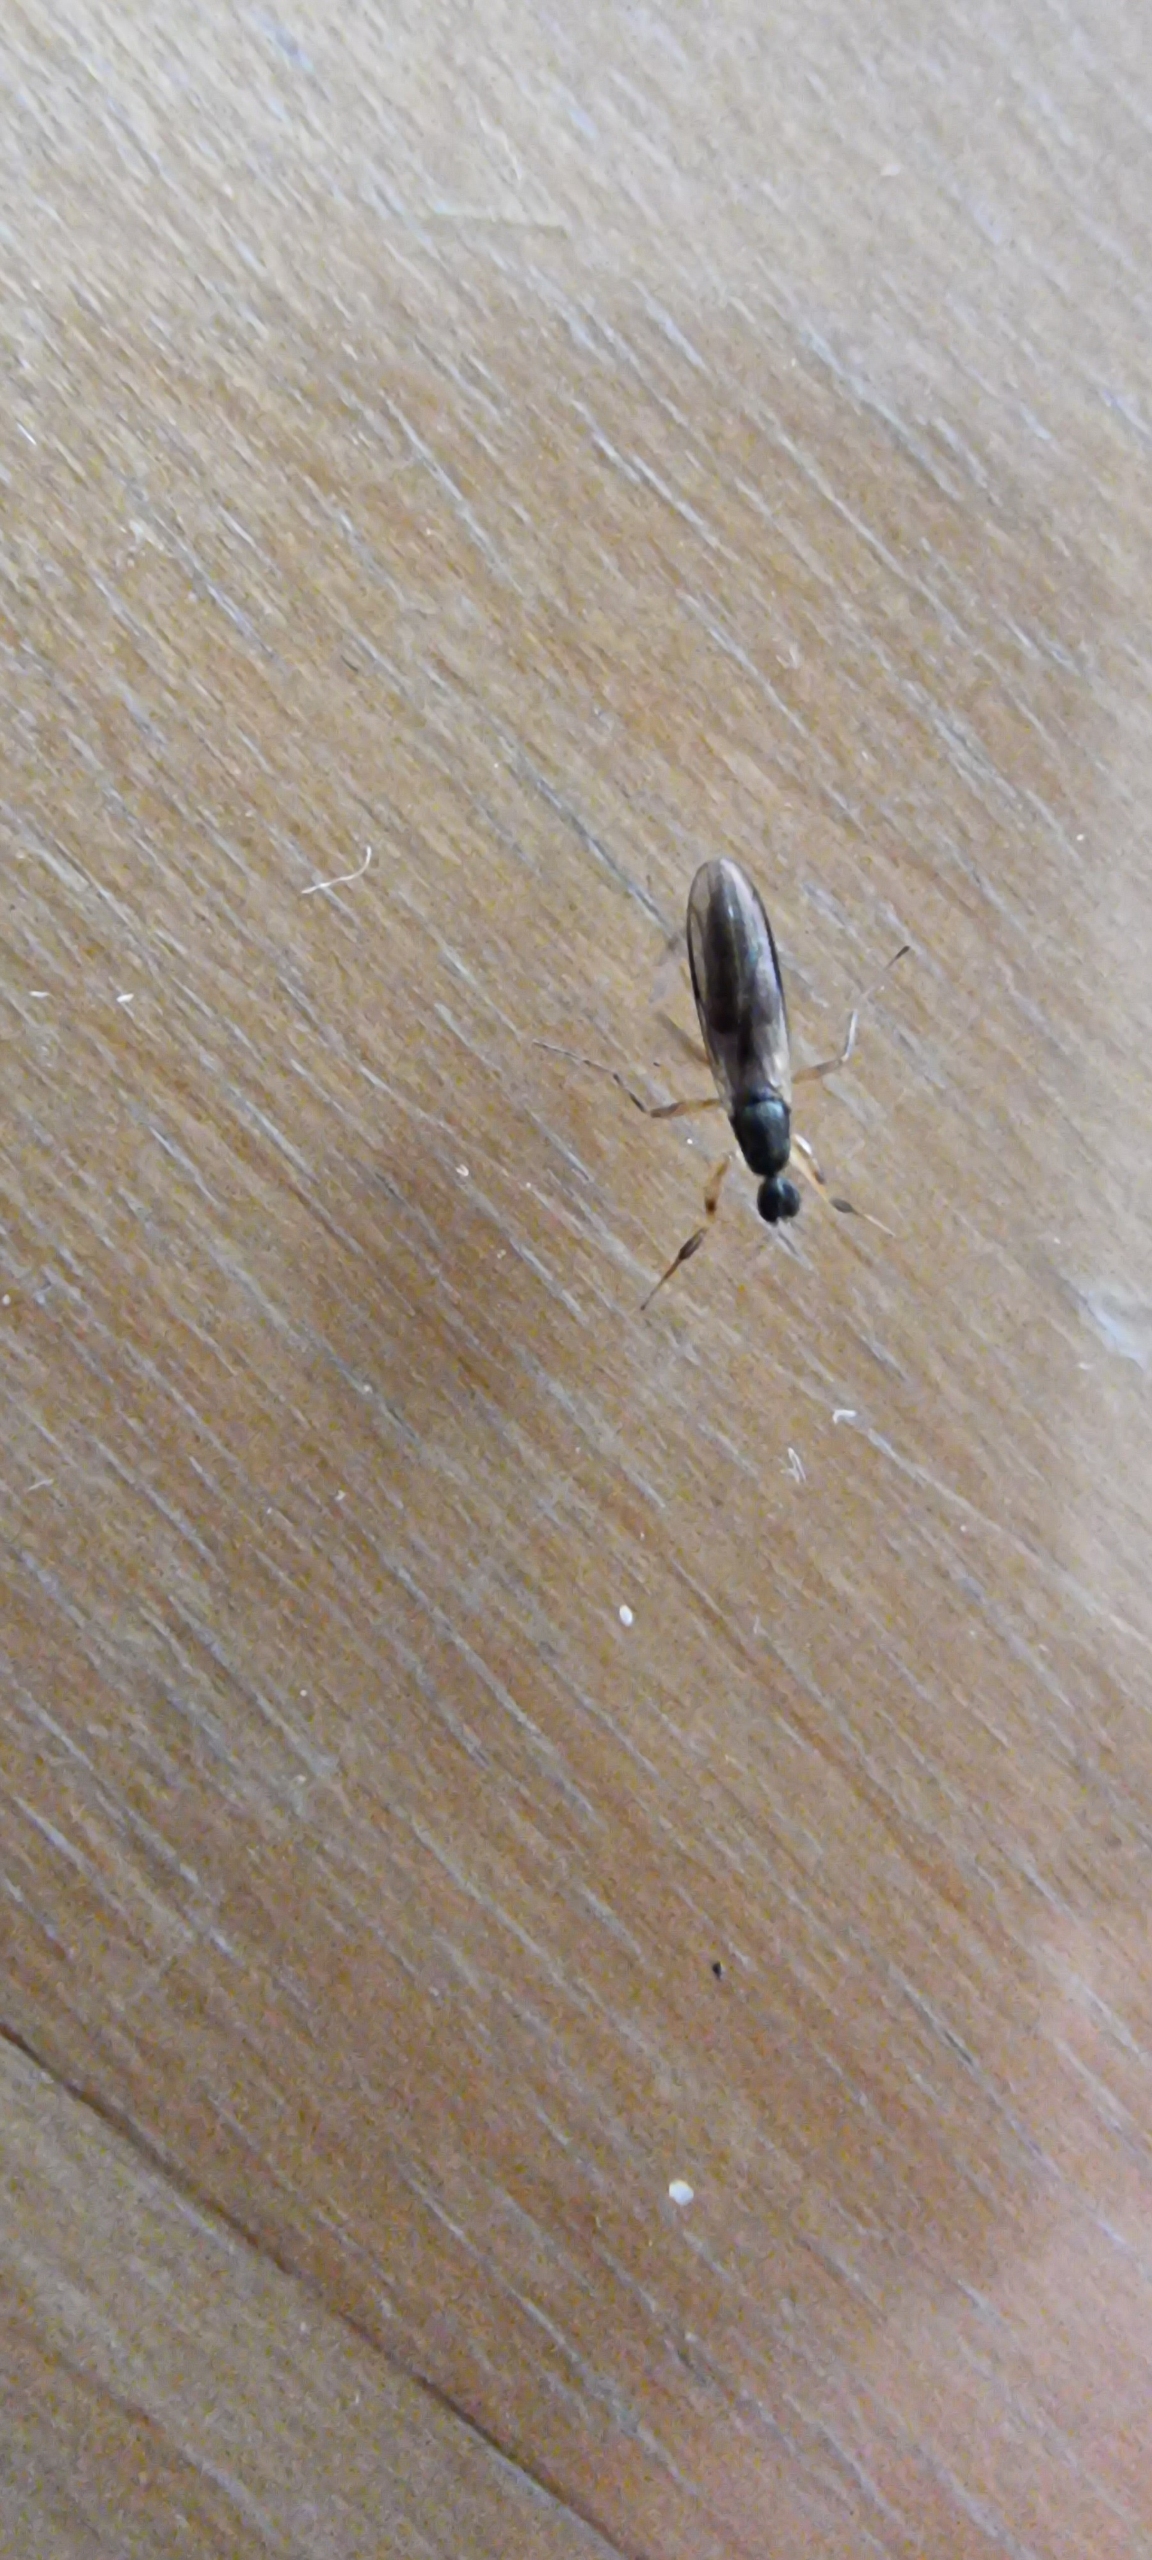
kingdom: Animalia
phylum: Arthropoda
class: Insecta
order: Diptera
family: Hybotidae
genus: Tachypeza
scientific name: Tachypeza nubila
